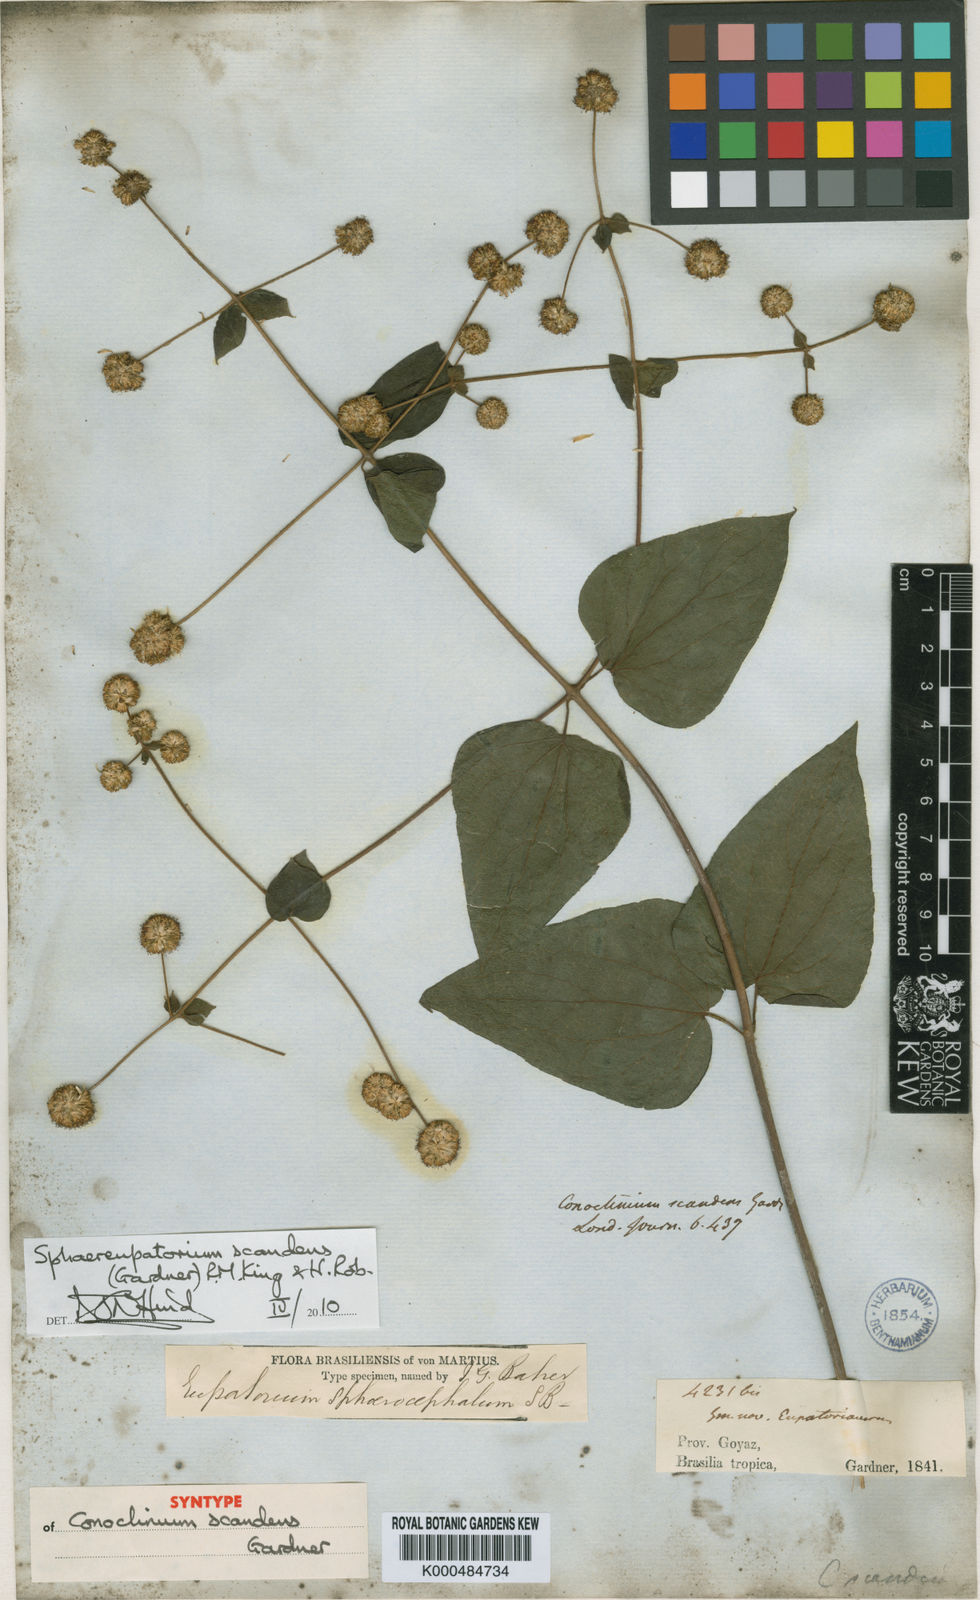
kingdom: Plantae
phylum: Tracheophyta
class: Magnoliopsida
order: Asterales
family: Asteraceae
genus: Sphaereupatorium
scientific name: Sphaereupatorium scandens
